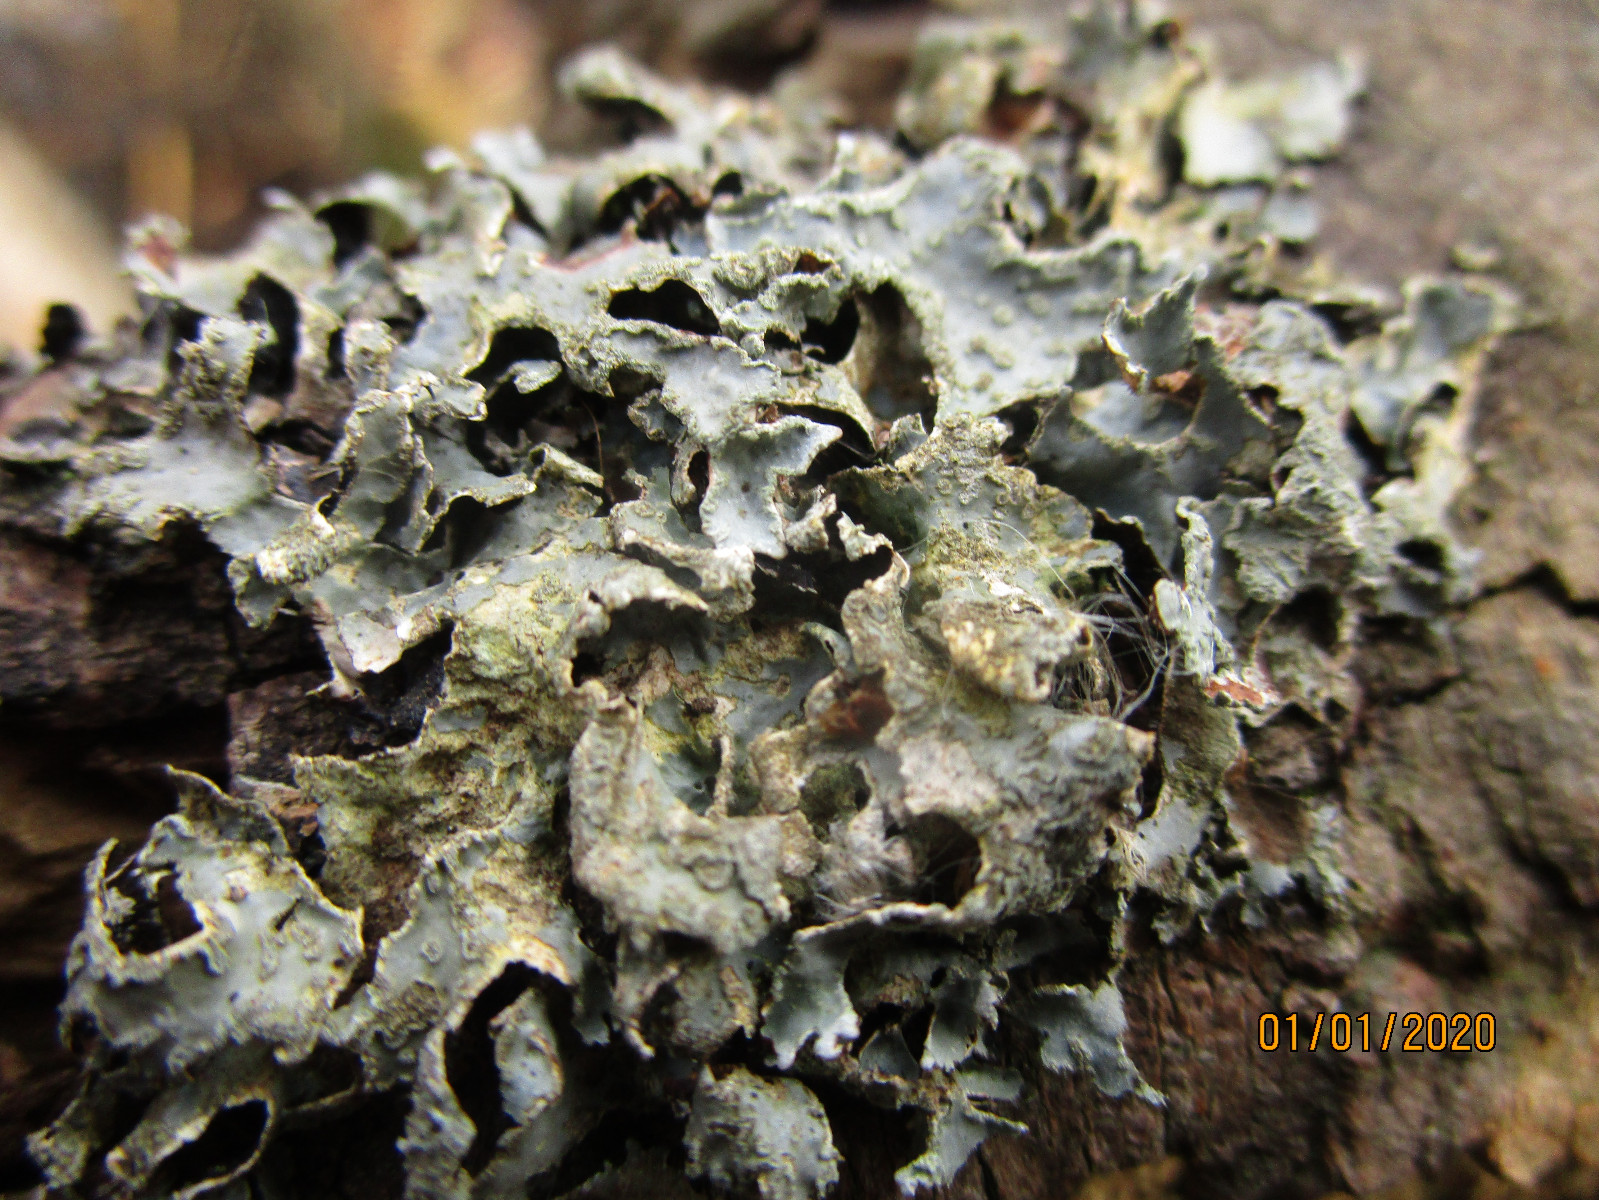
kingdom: Fungi
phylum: Ascomycota
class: Lecanoromycetes
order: Lecanorales
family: Parmeliaceae
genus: Parmelia
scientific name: Parmelia sulcata
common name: rynket skållav
